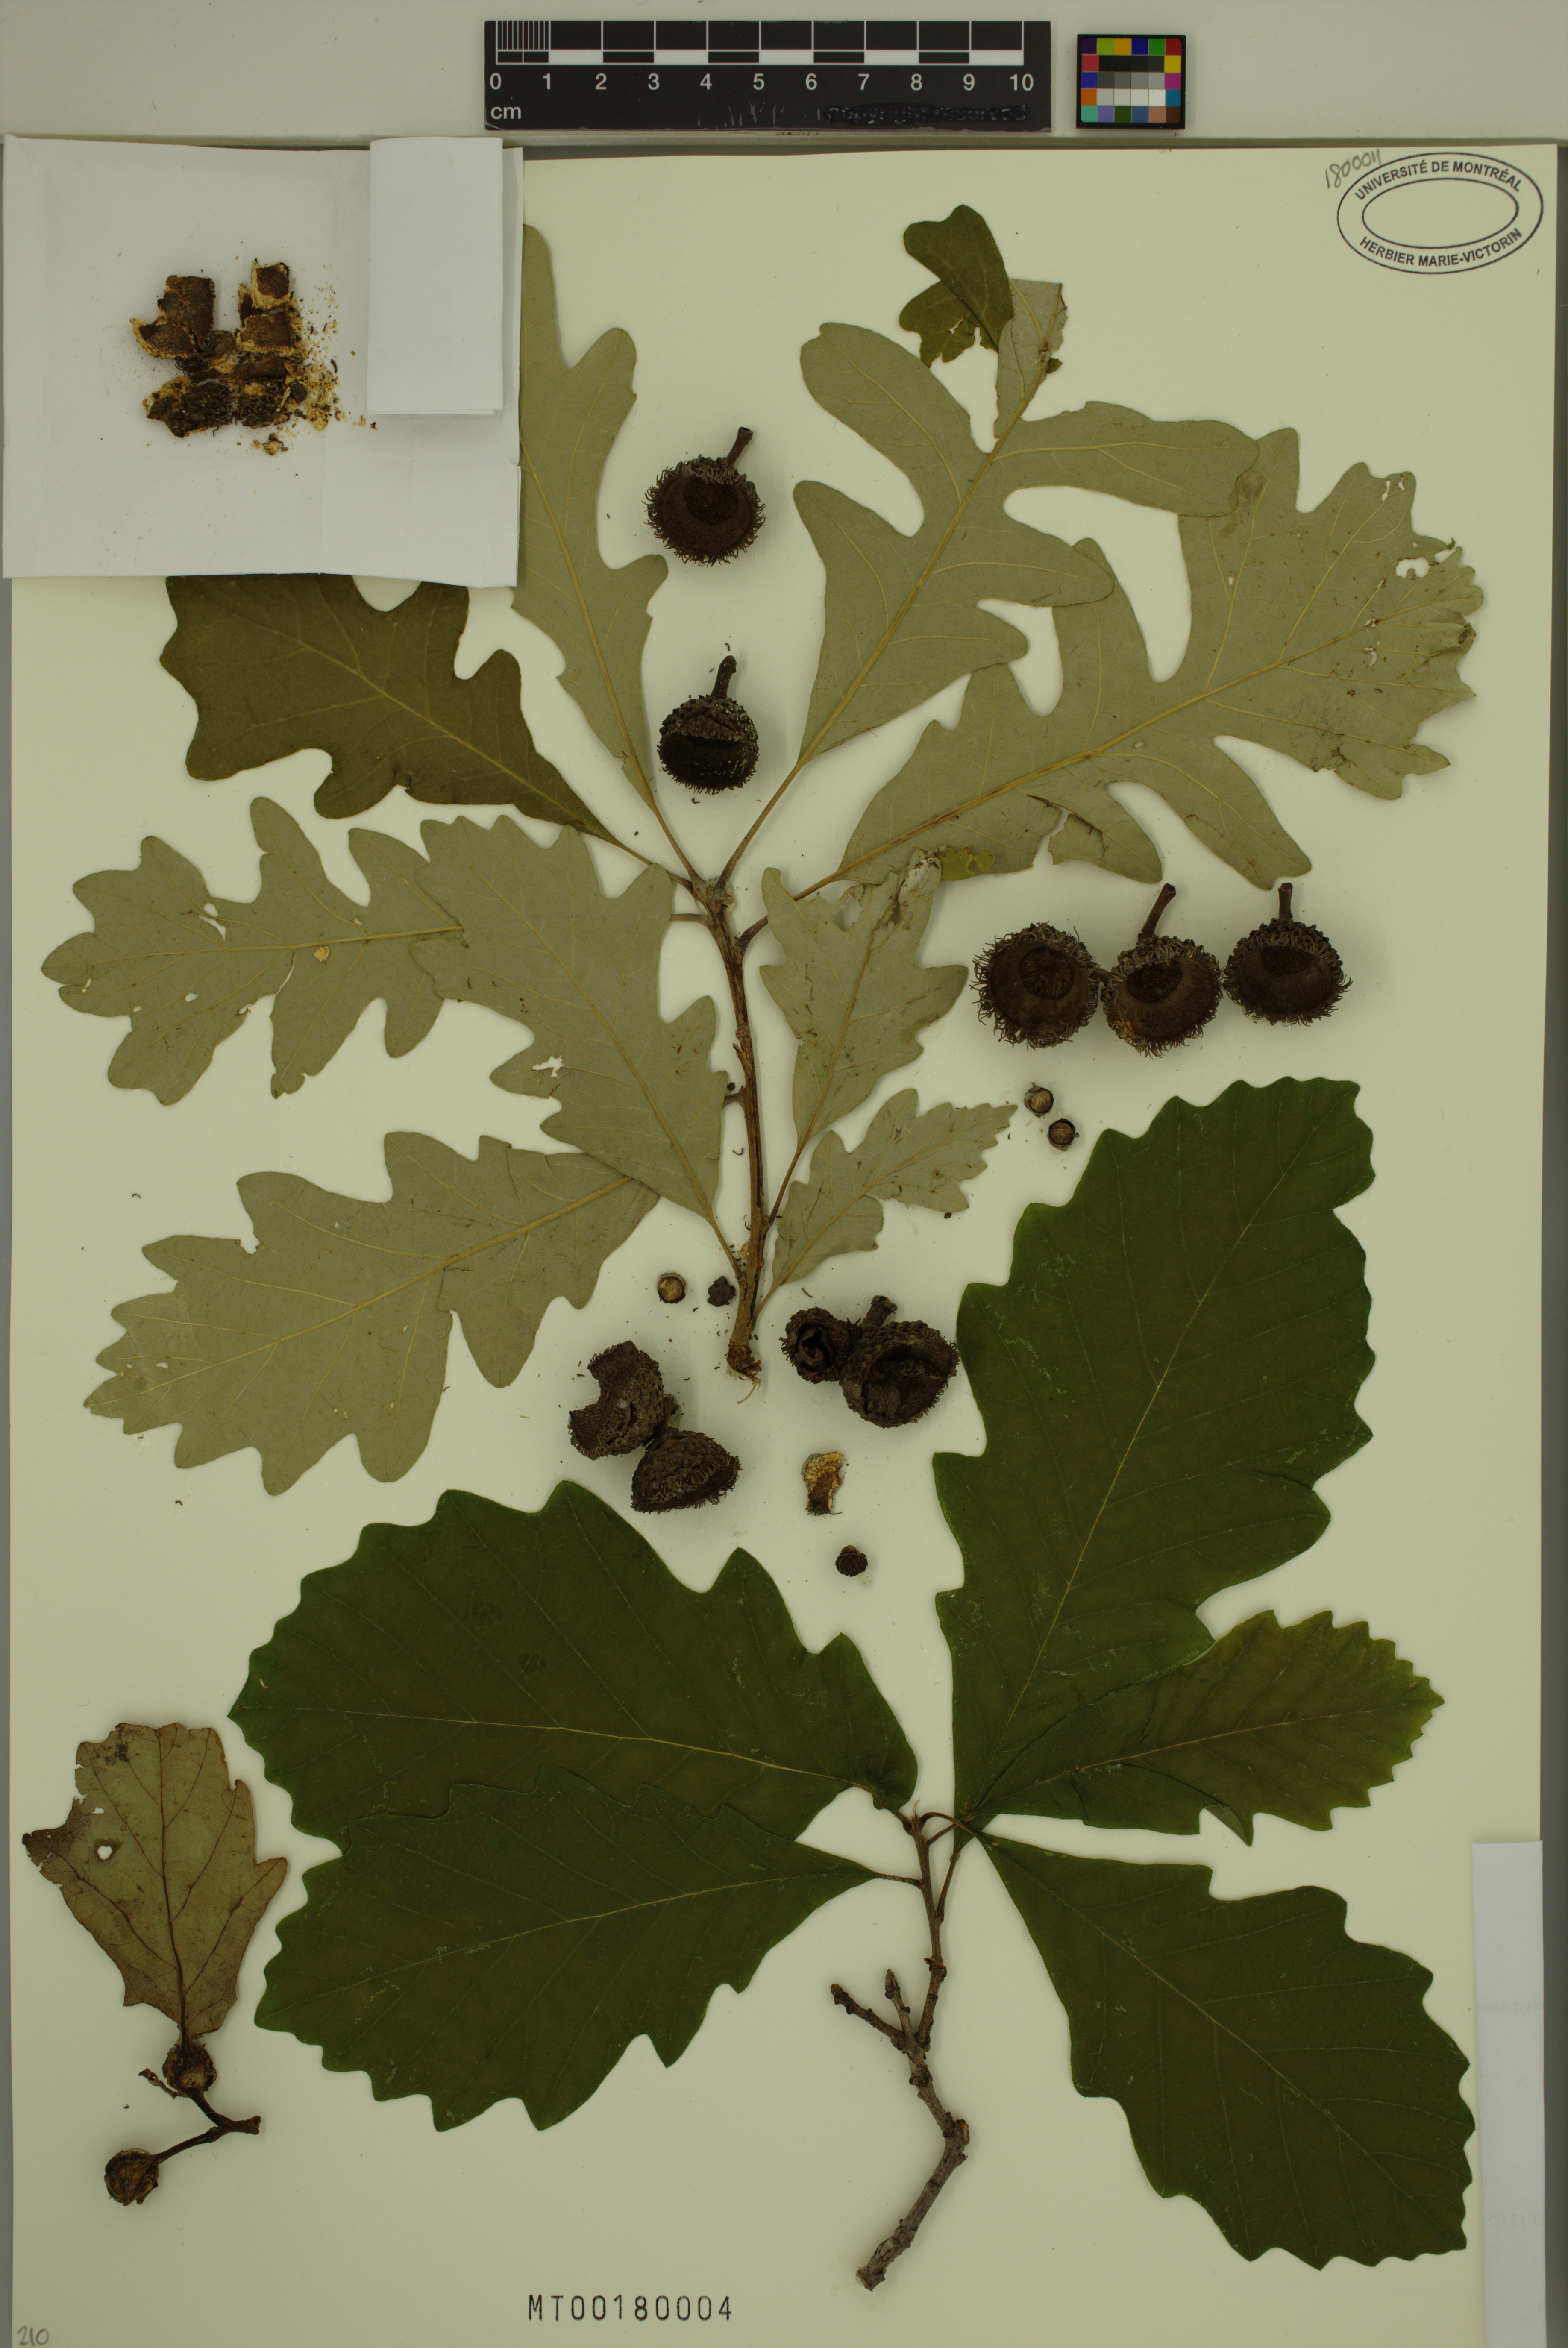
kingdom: Plantae
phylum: Tracheophyta
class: Magnoliopsida
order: Fagales
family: Fagaceae
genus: Quercus
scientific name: Quercus bicolor
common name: Swamp white oak
